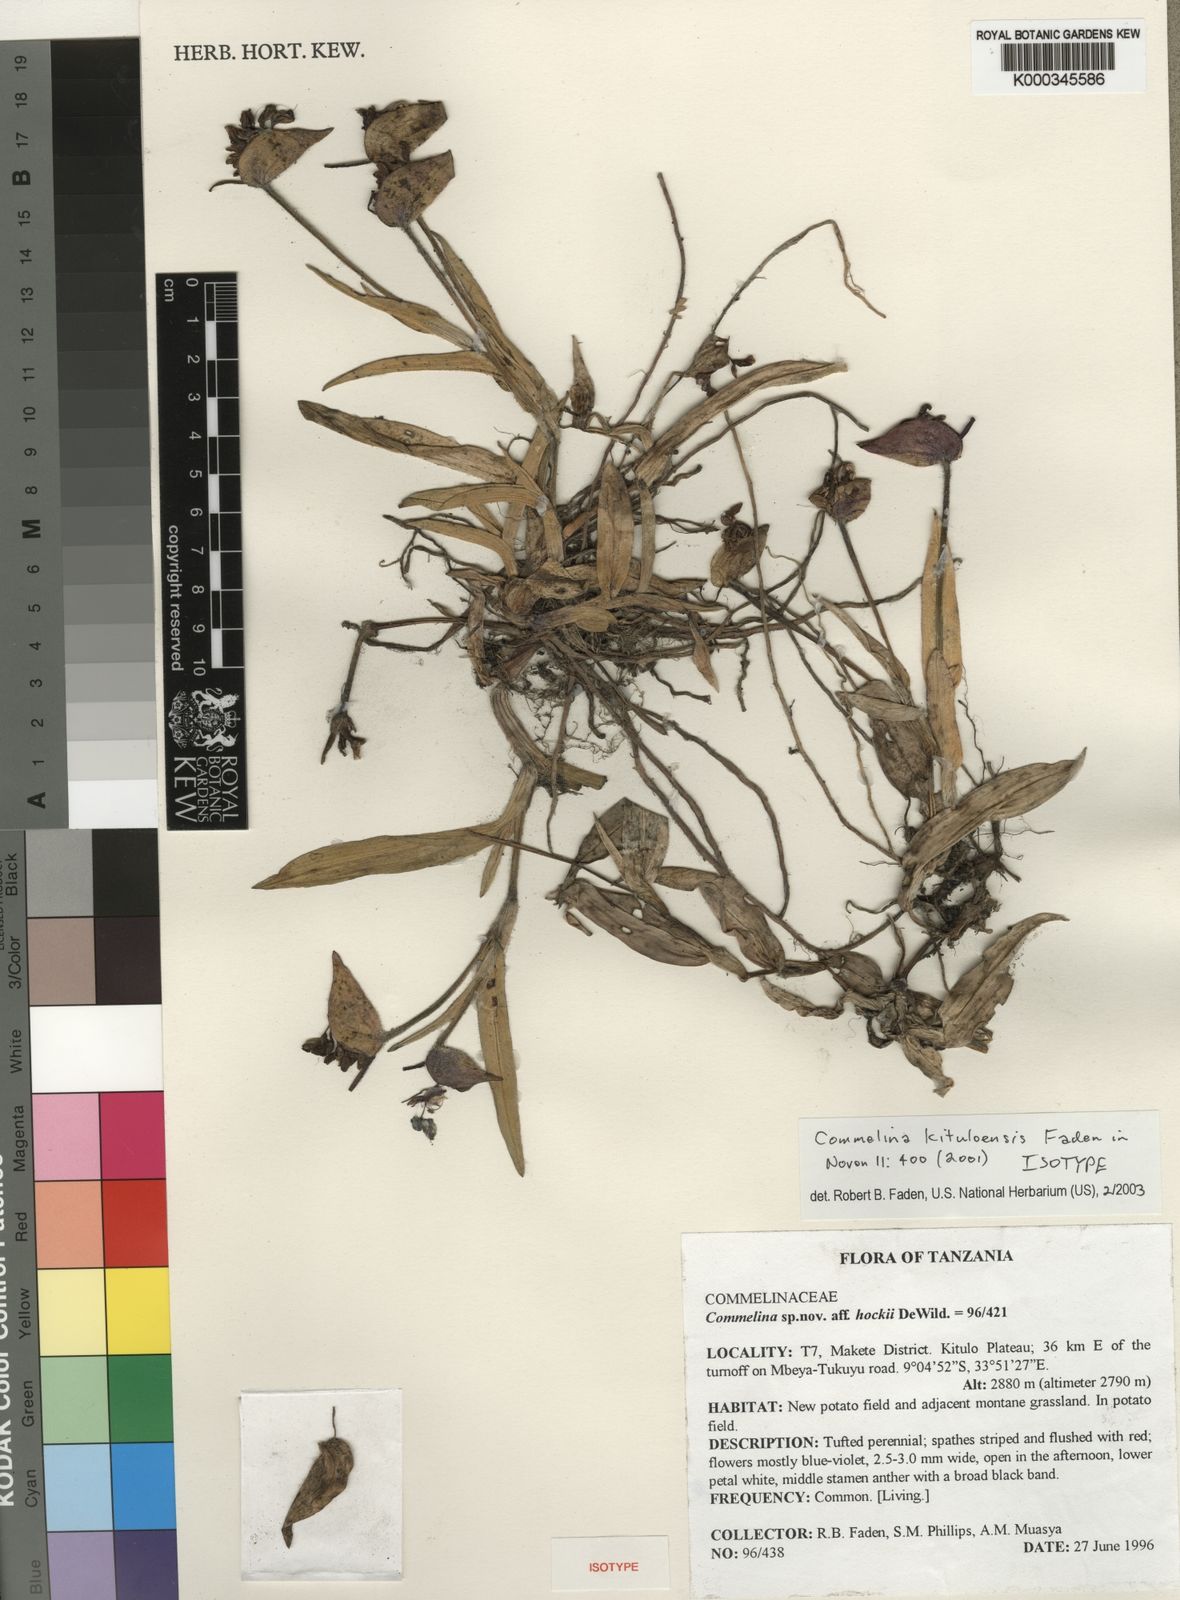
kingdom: Plantae
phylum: Tracheophyta
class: Liliopsida
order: Commelinales
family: Commelinaceae
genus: Commelina
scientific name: Commelina kituloensis
